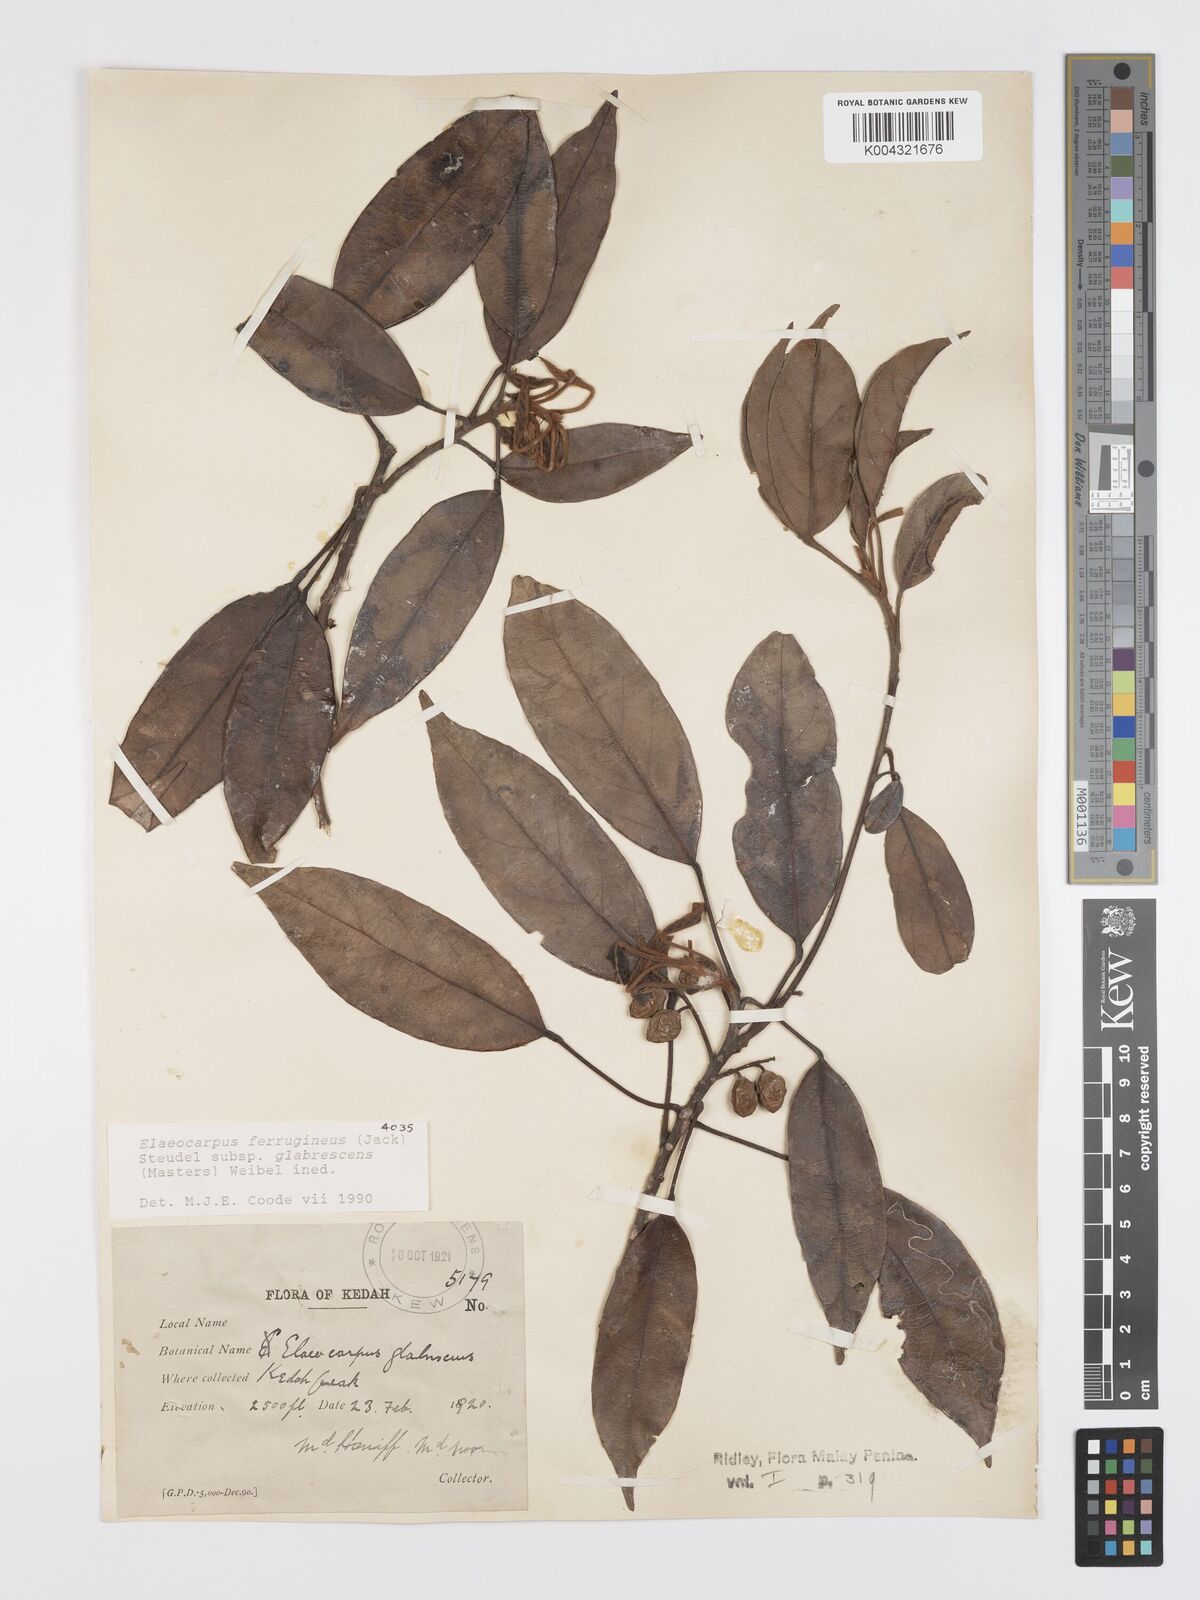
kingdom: Plantae
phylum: Tracheophyta
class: Magnoliopsida
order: Oxalidales
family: Elaeocarpaceae
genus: Elaeocarpus
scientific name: Elaeocarpus ferrugineus
